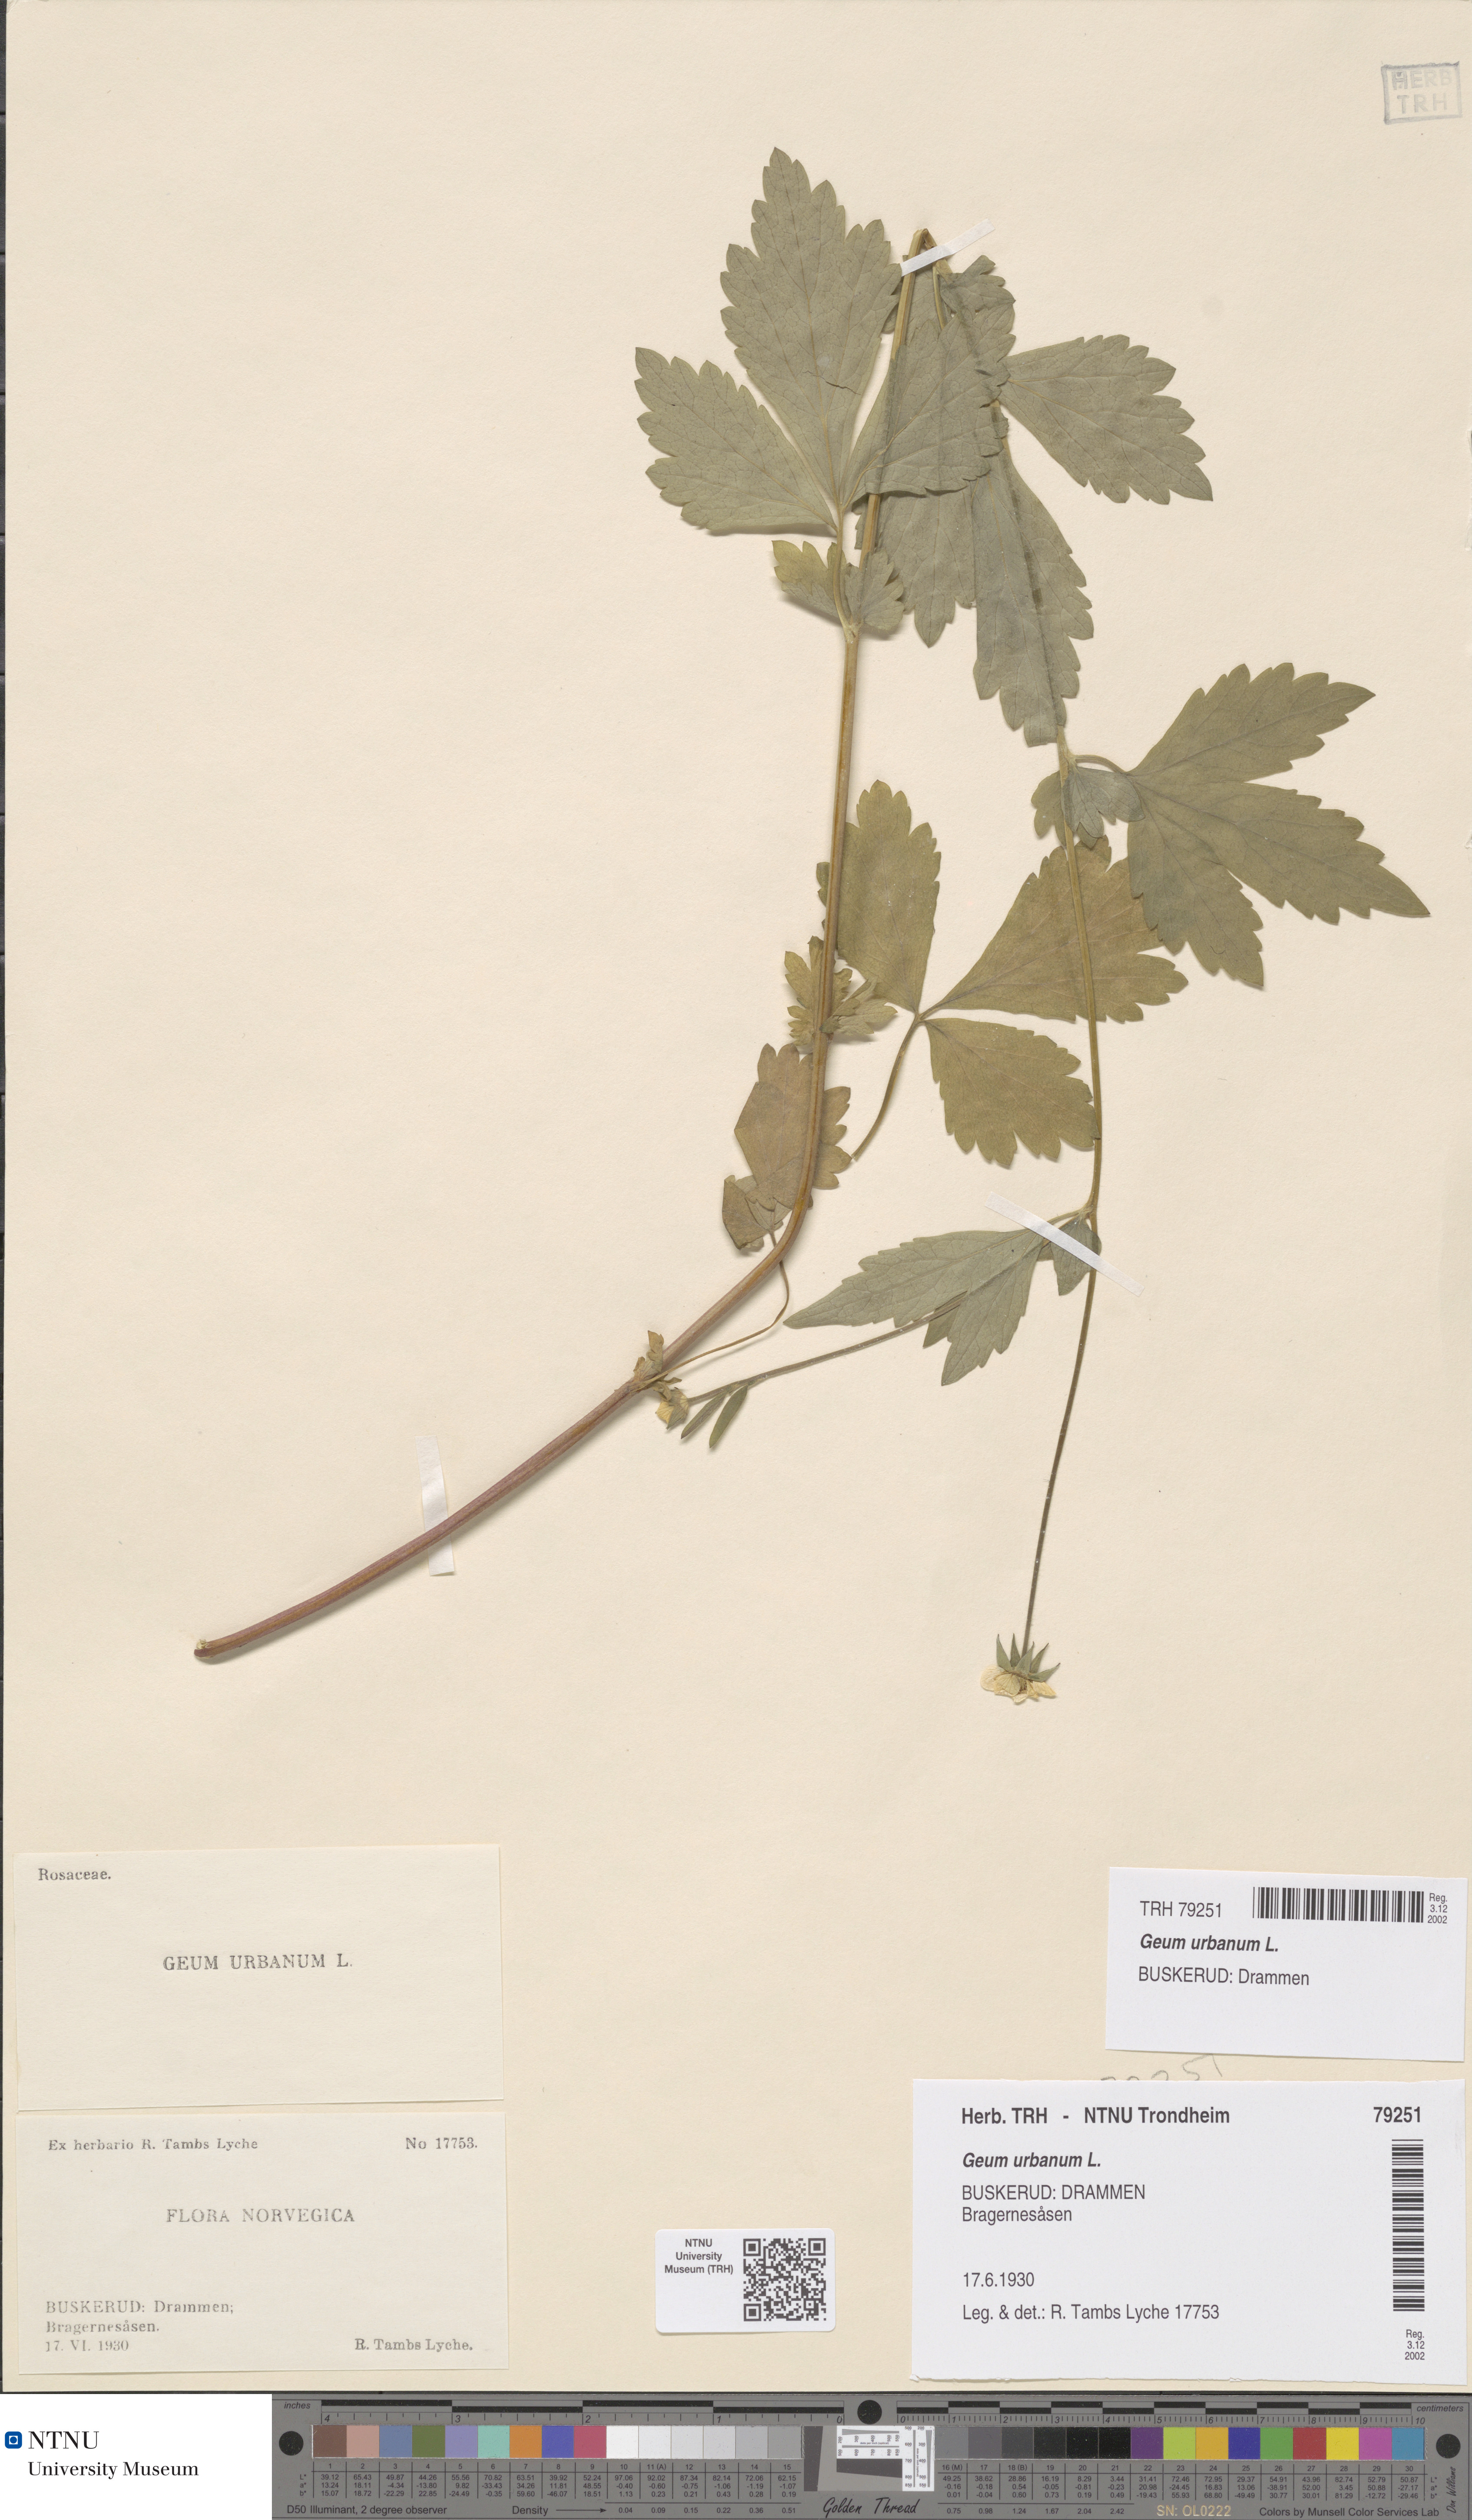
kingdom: Plantae
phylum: Tracheophyta
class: Magnoliopsida
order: Rosales
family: Rosaceae
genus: Geum
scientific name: Geum urbanum
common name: Wood avens
